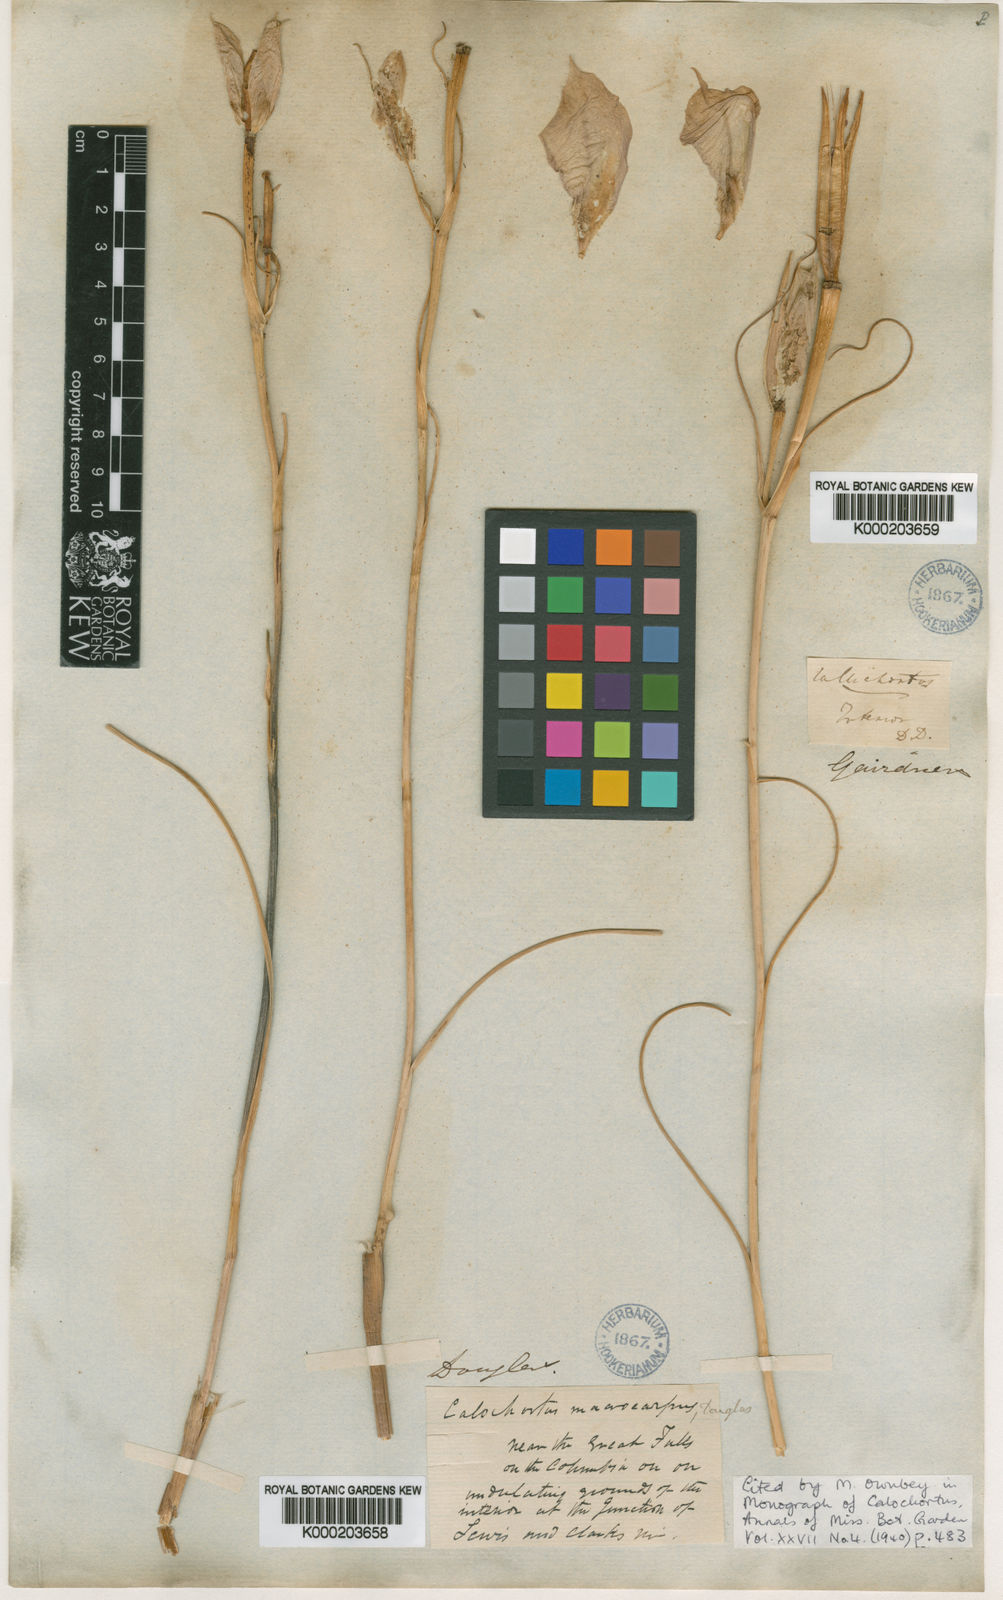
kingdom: Plantae
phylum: Tracheophyta
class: Liliopsida
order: Liliales
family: Liliaceae
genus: Calochortus
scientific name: Calochortus macrocarpus
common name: Green-band mariposa lily
